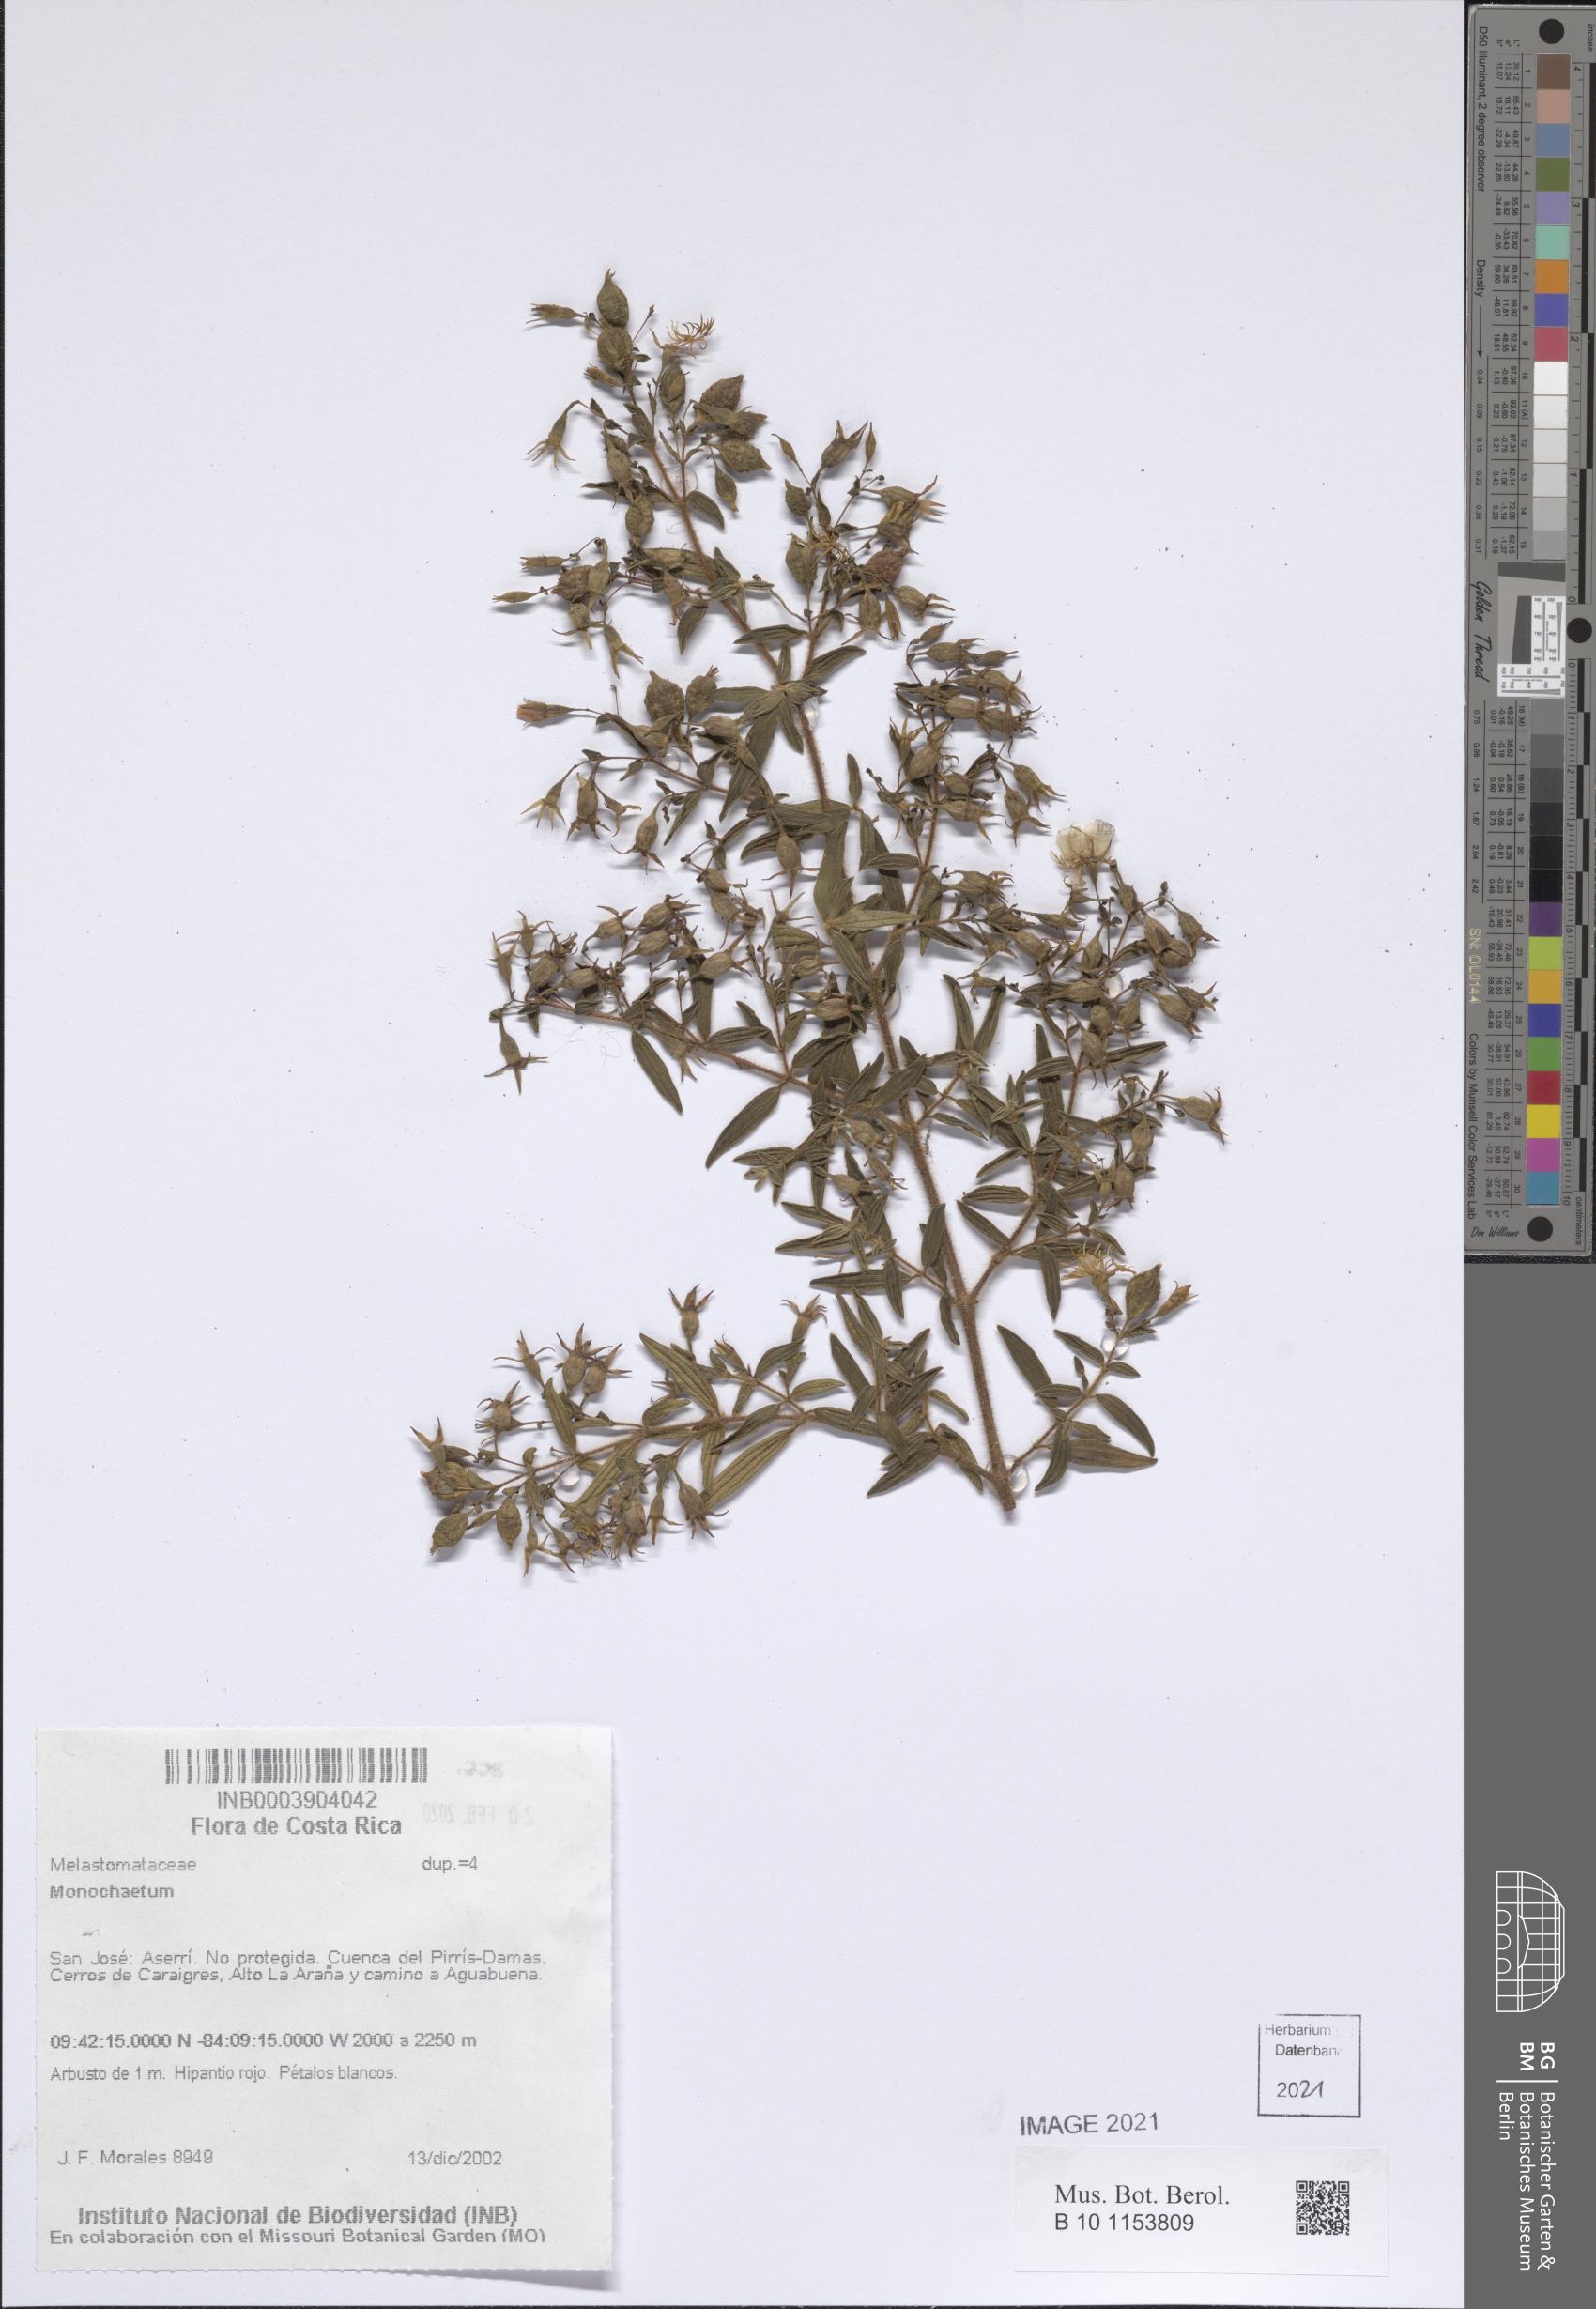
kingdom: Plantae
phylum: Tracheophyta
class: Magnoliopsida
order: Myrtales
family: Melastomataceae
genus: Monochaetum
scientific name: Monochaetum
